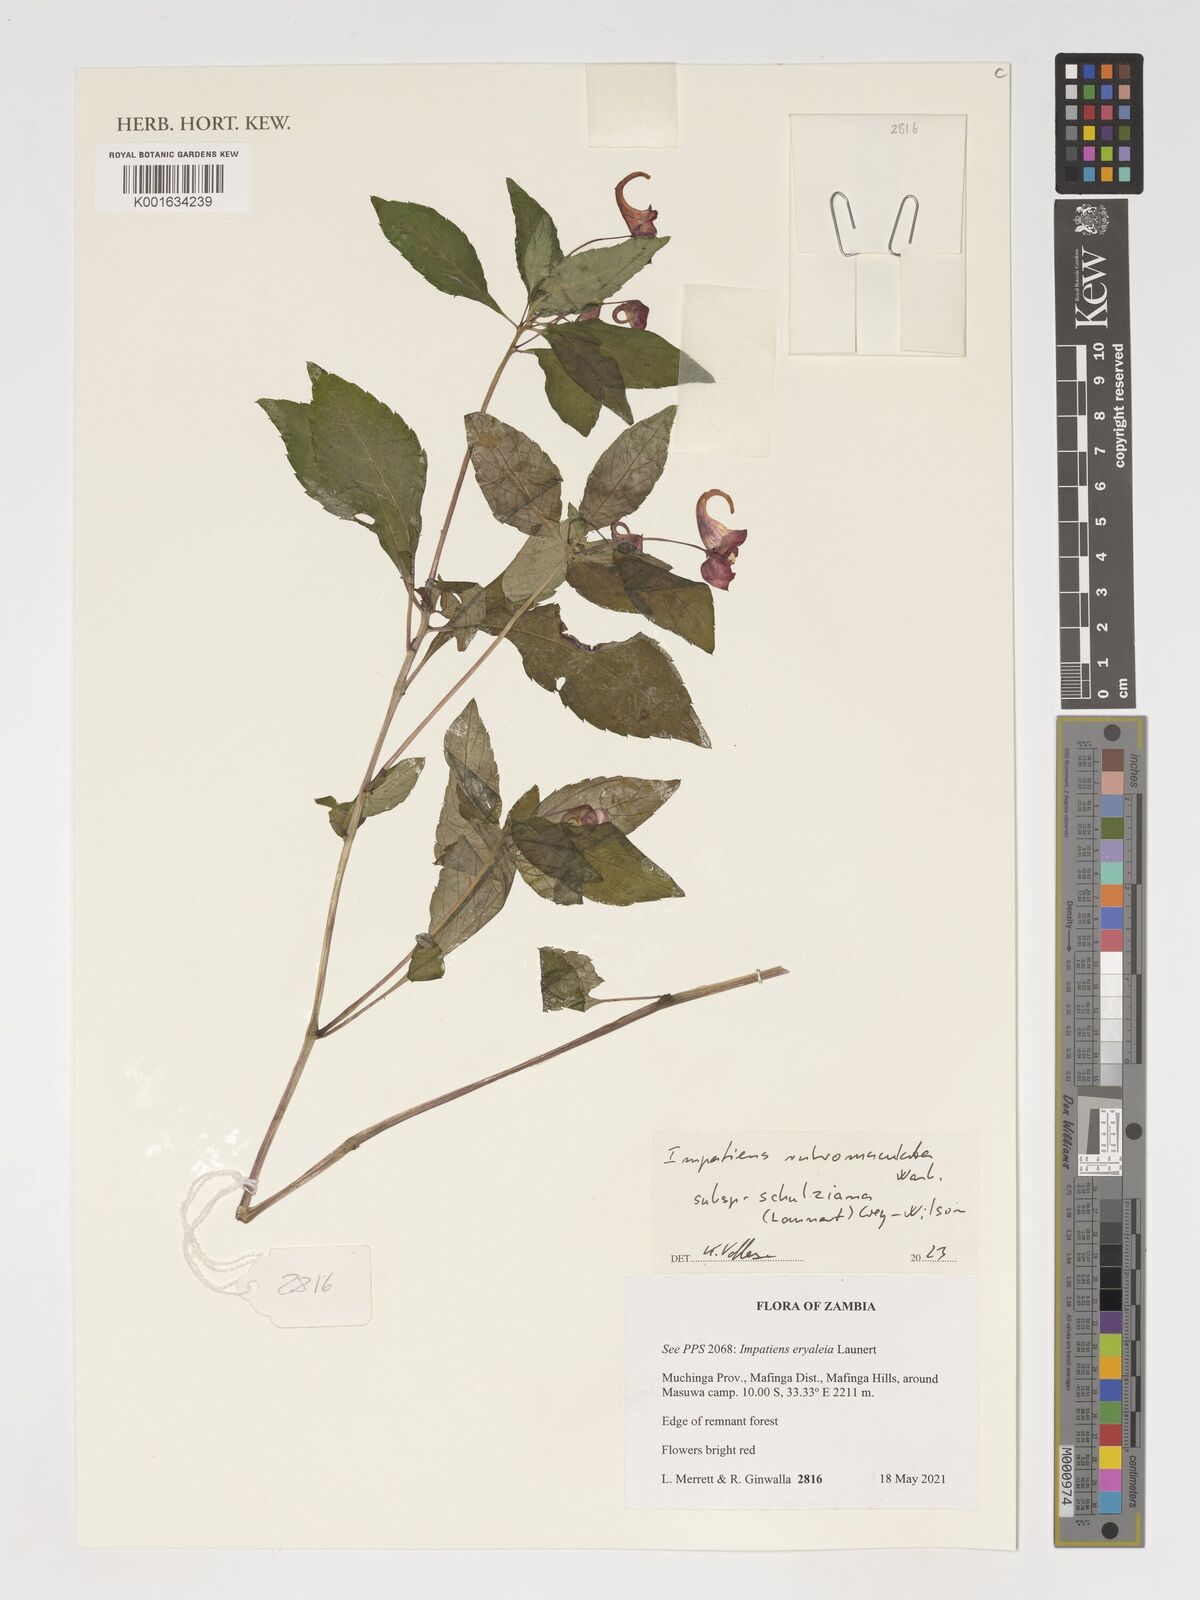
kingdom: Plantae
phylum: Tracheophyta
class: Magnoliopsida
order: Ericales
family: Balsaminaceae
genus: Impatiens
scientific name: Impatiens rubromaculata
